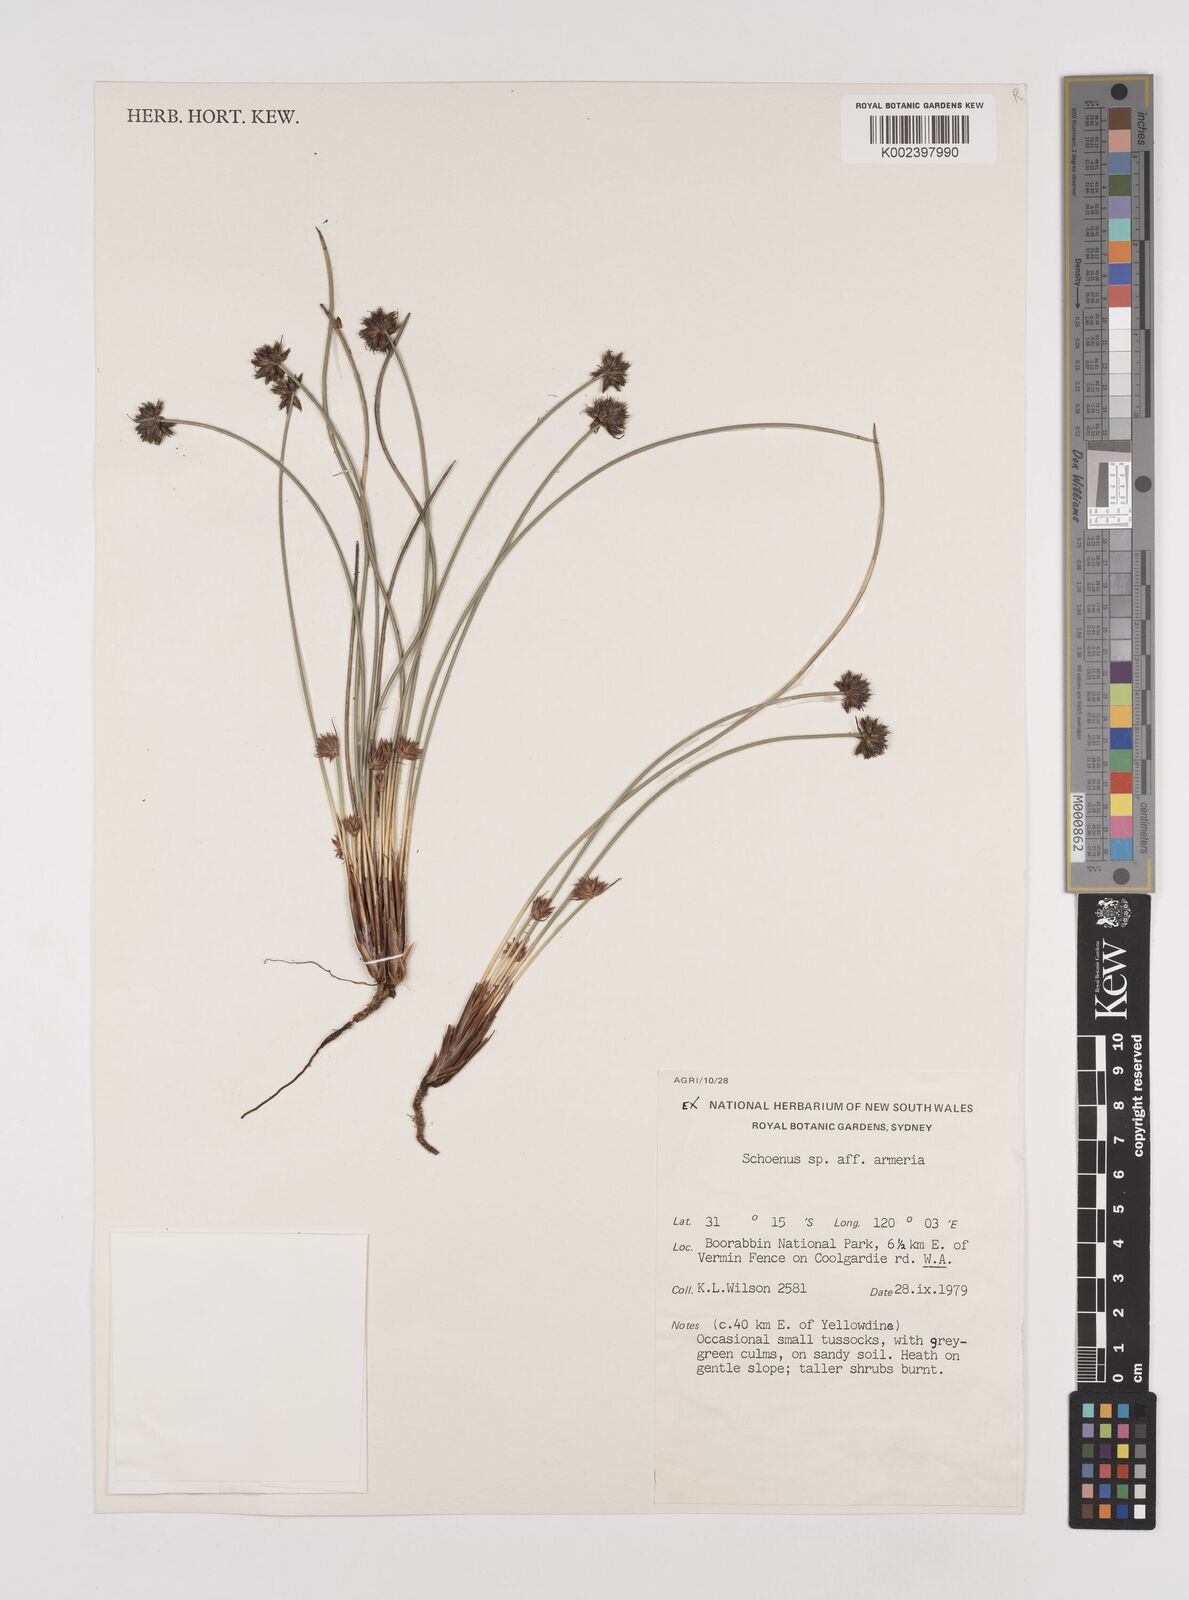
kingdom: Plantae
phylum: Tracheophyta
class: Liliopsida
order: Poales
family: Cyperaceae
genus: Schoenus
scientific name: Schoenus globifer
